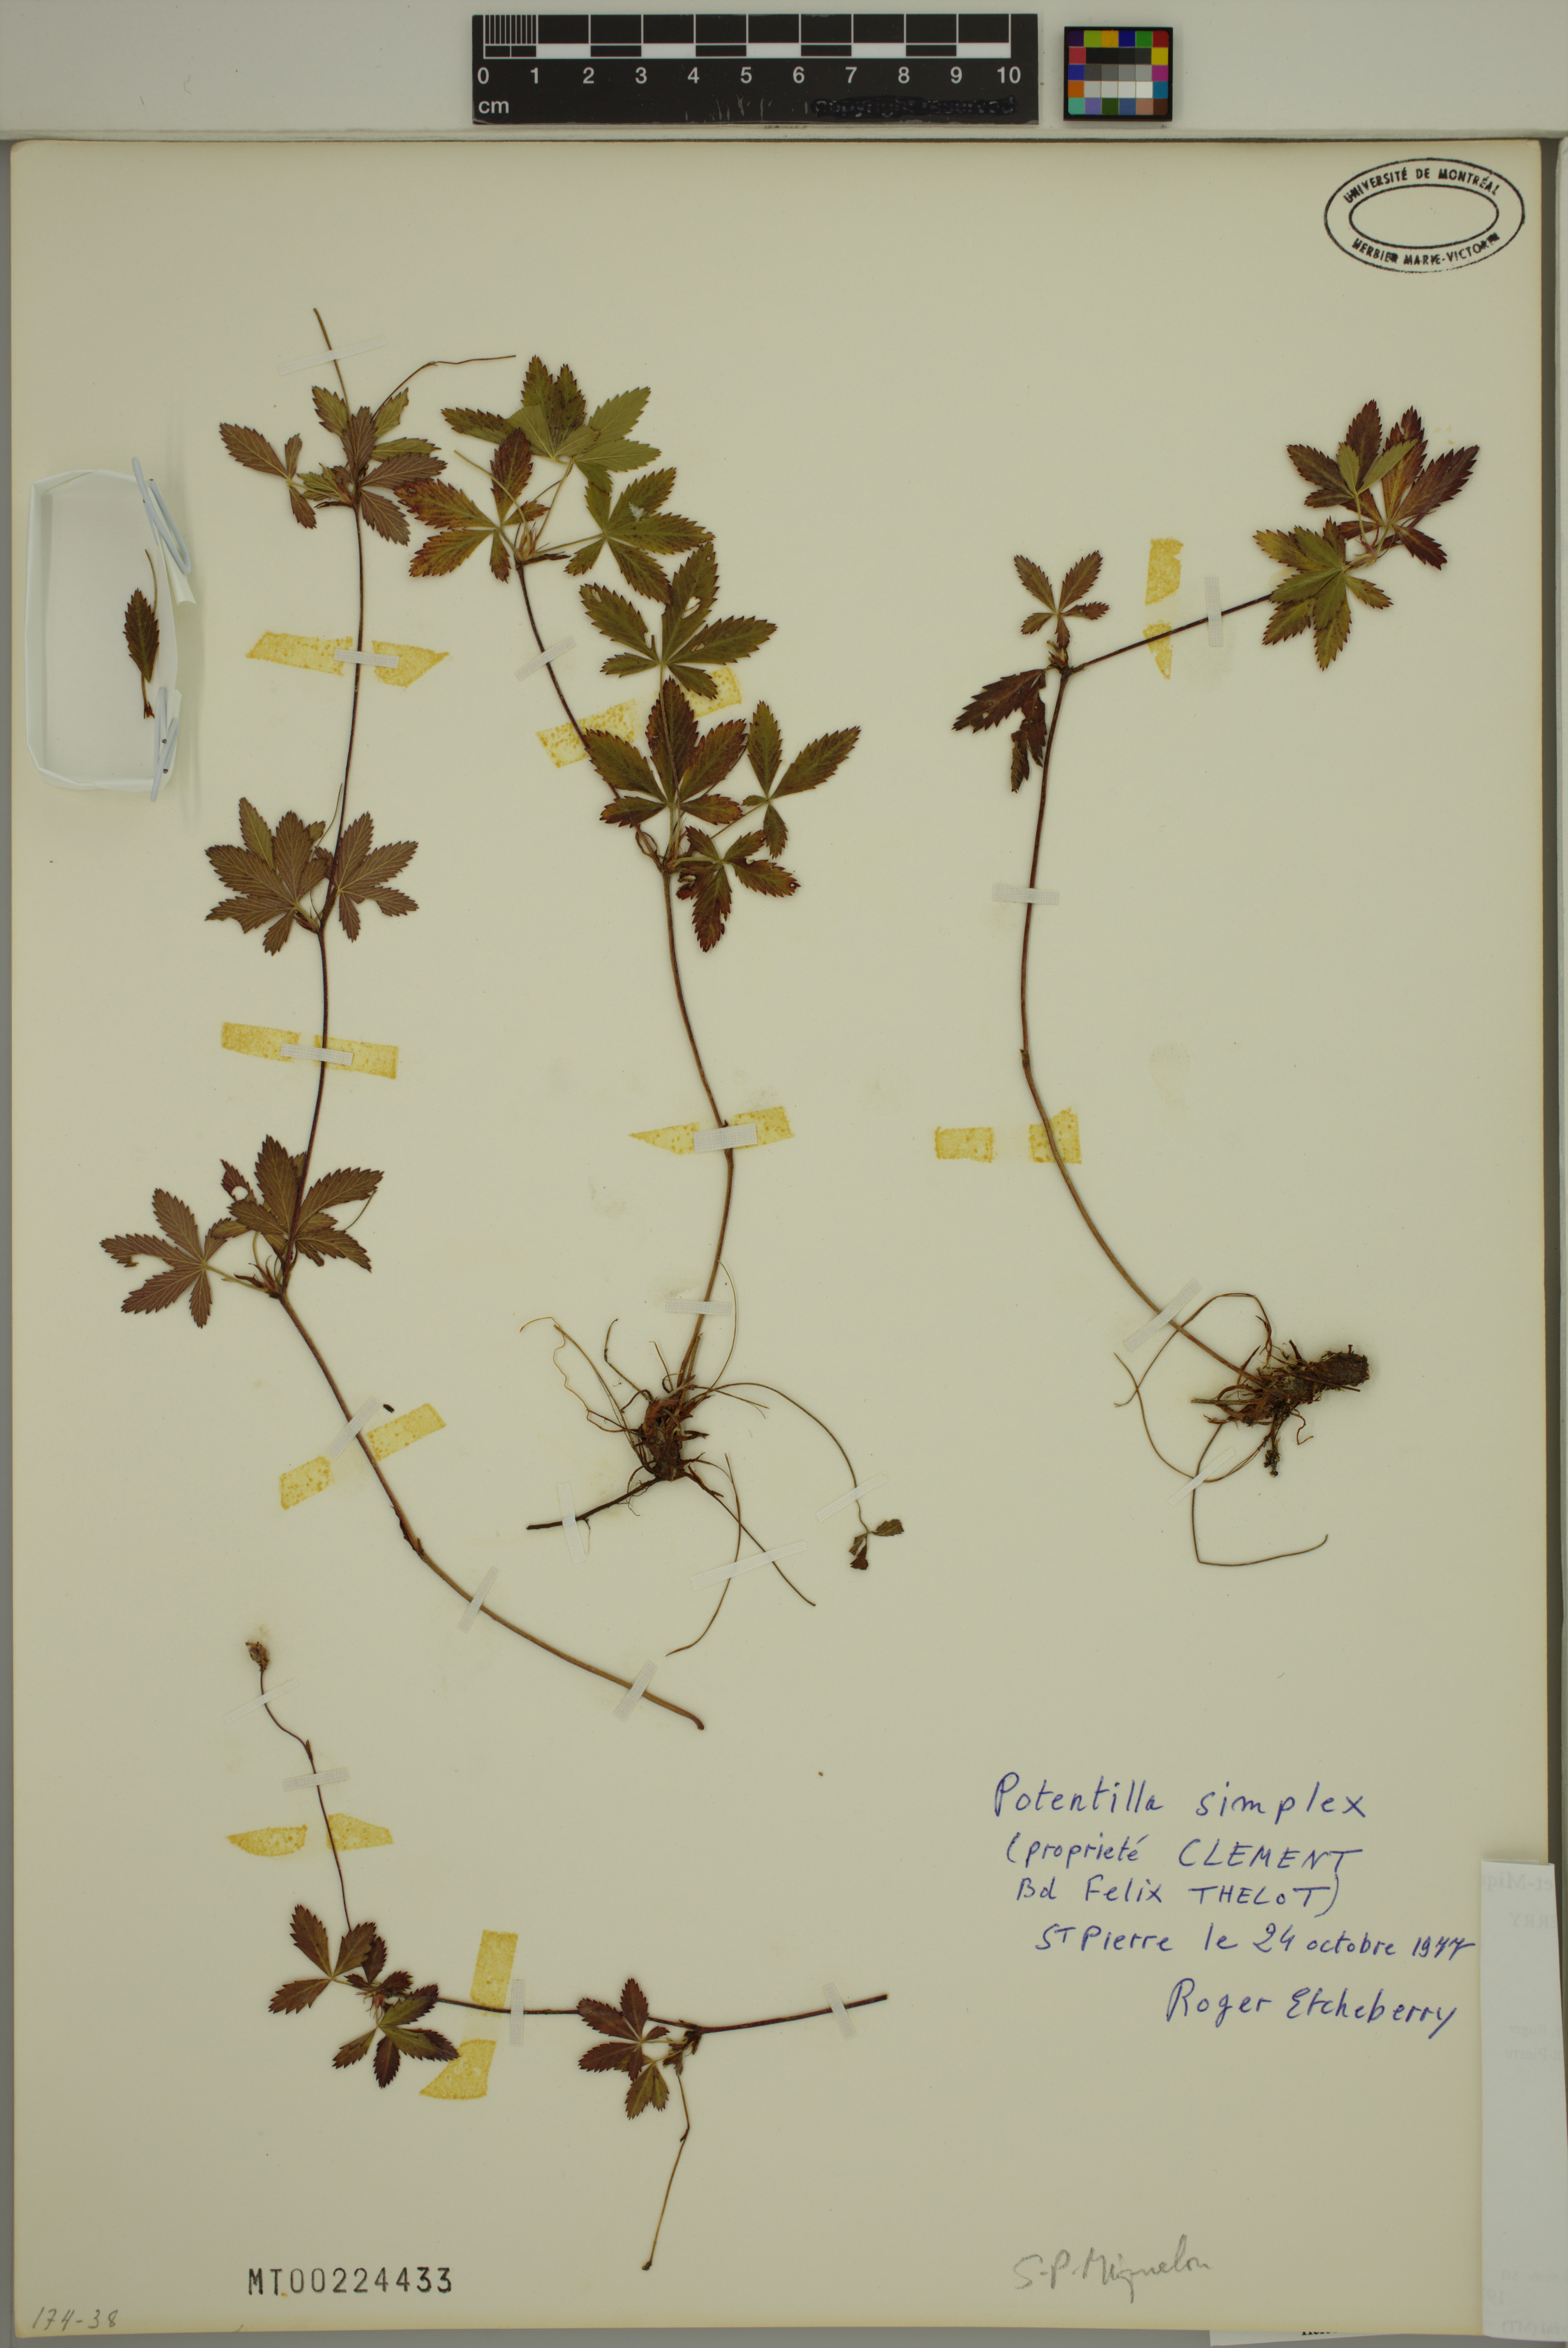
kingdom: Plantae
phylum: Tracheophyta
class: Magnoliopsida
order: Rosales
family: Rosaceae
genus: Potentilla
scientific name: Potentilla simplex
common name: Old field cinquefoil
